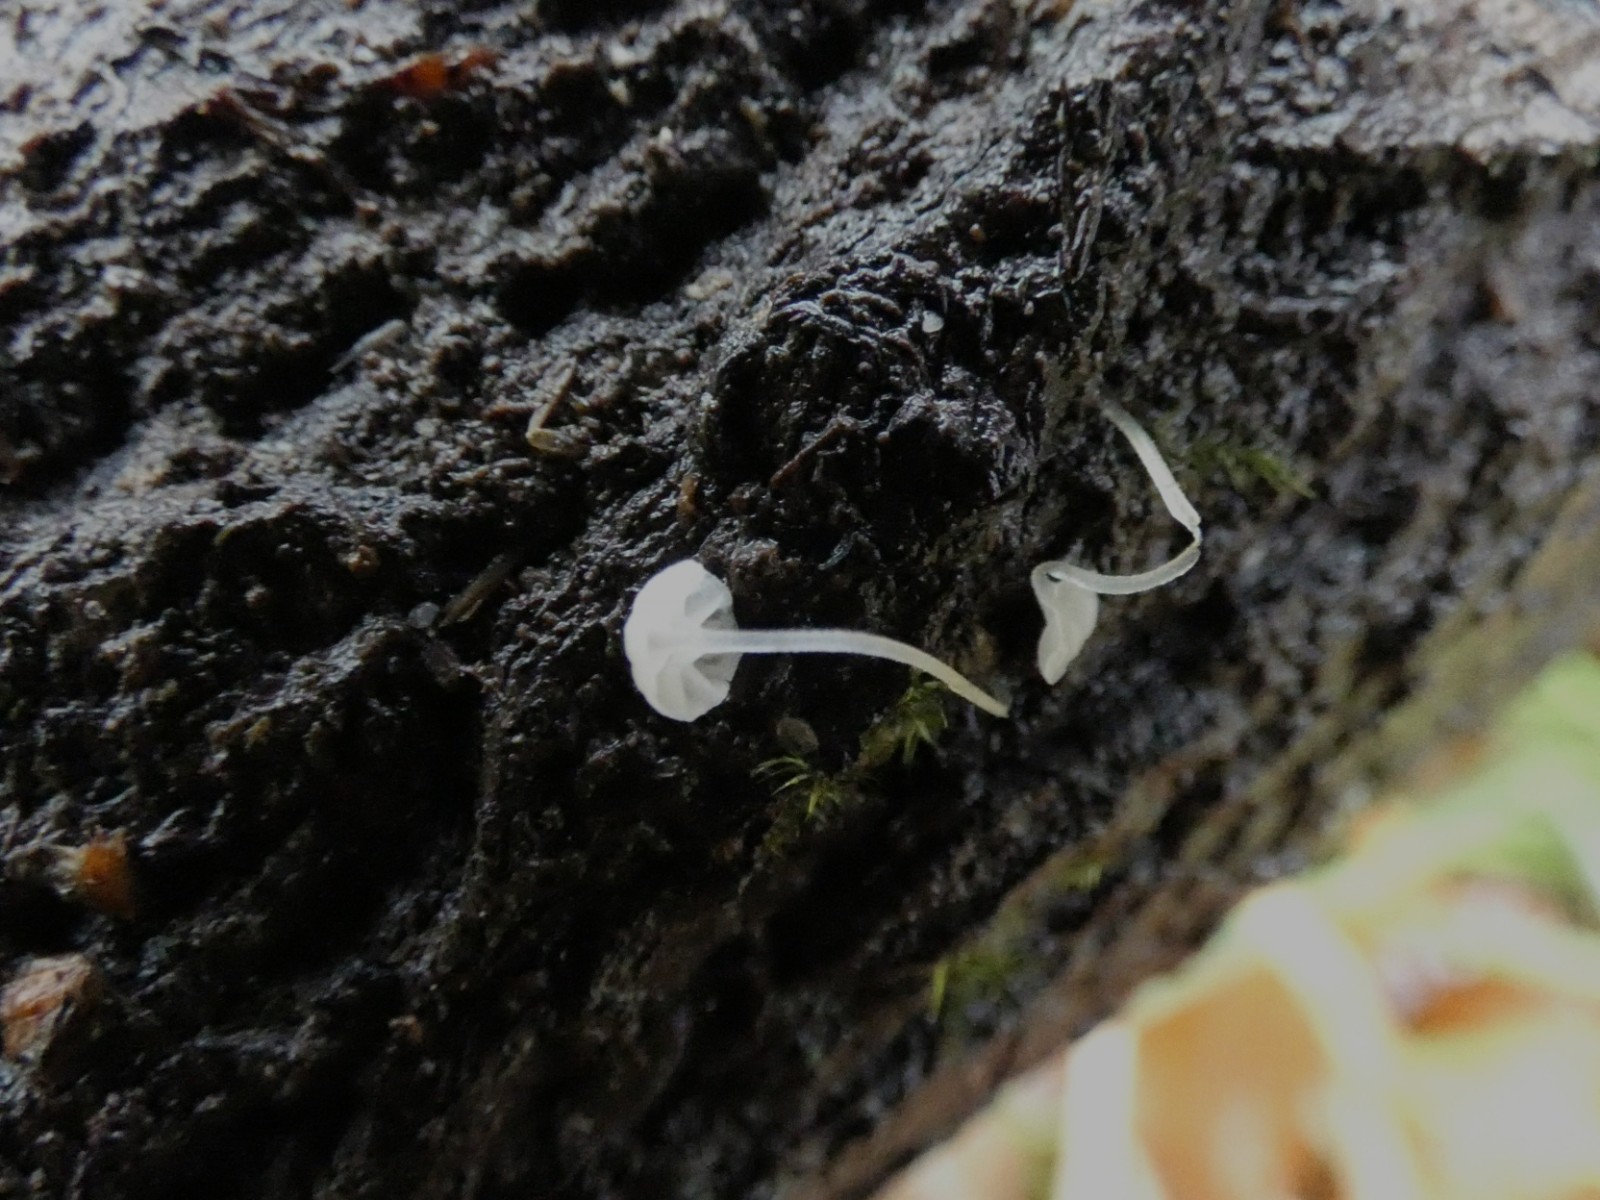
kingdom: Fungi
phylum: Basidiomycota
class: Agaricomycetes
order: Agaricales
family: Porotheleaceae
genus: Phloeomana
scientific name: Phloeomana speirea
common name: kvist-huesvamp
